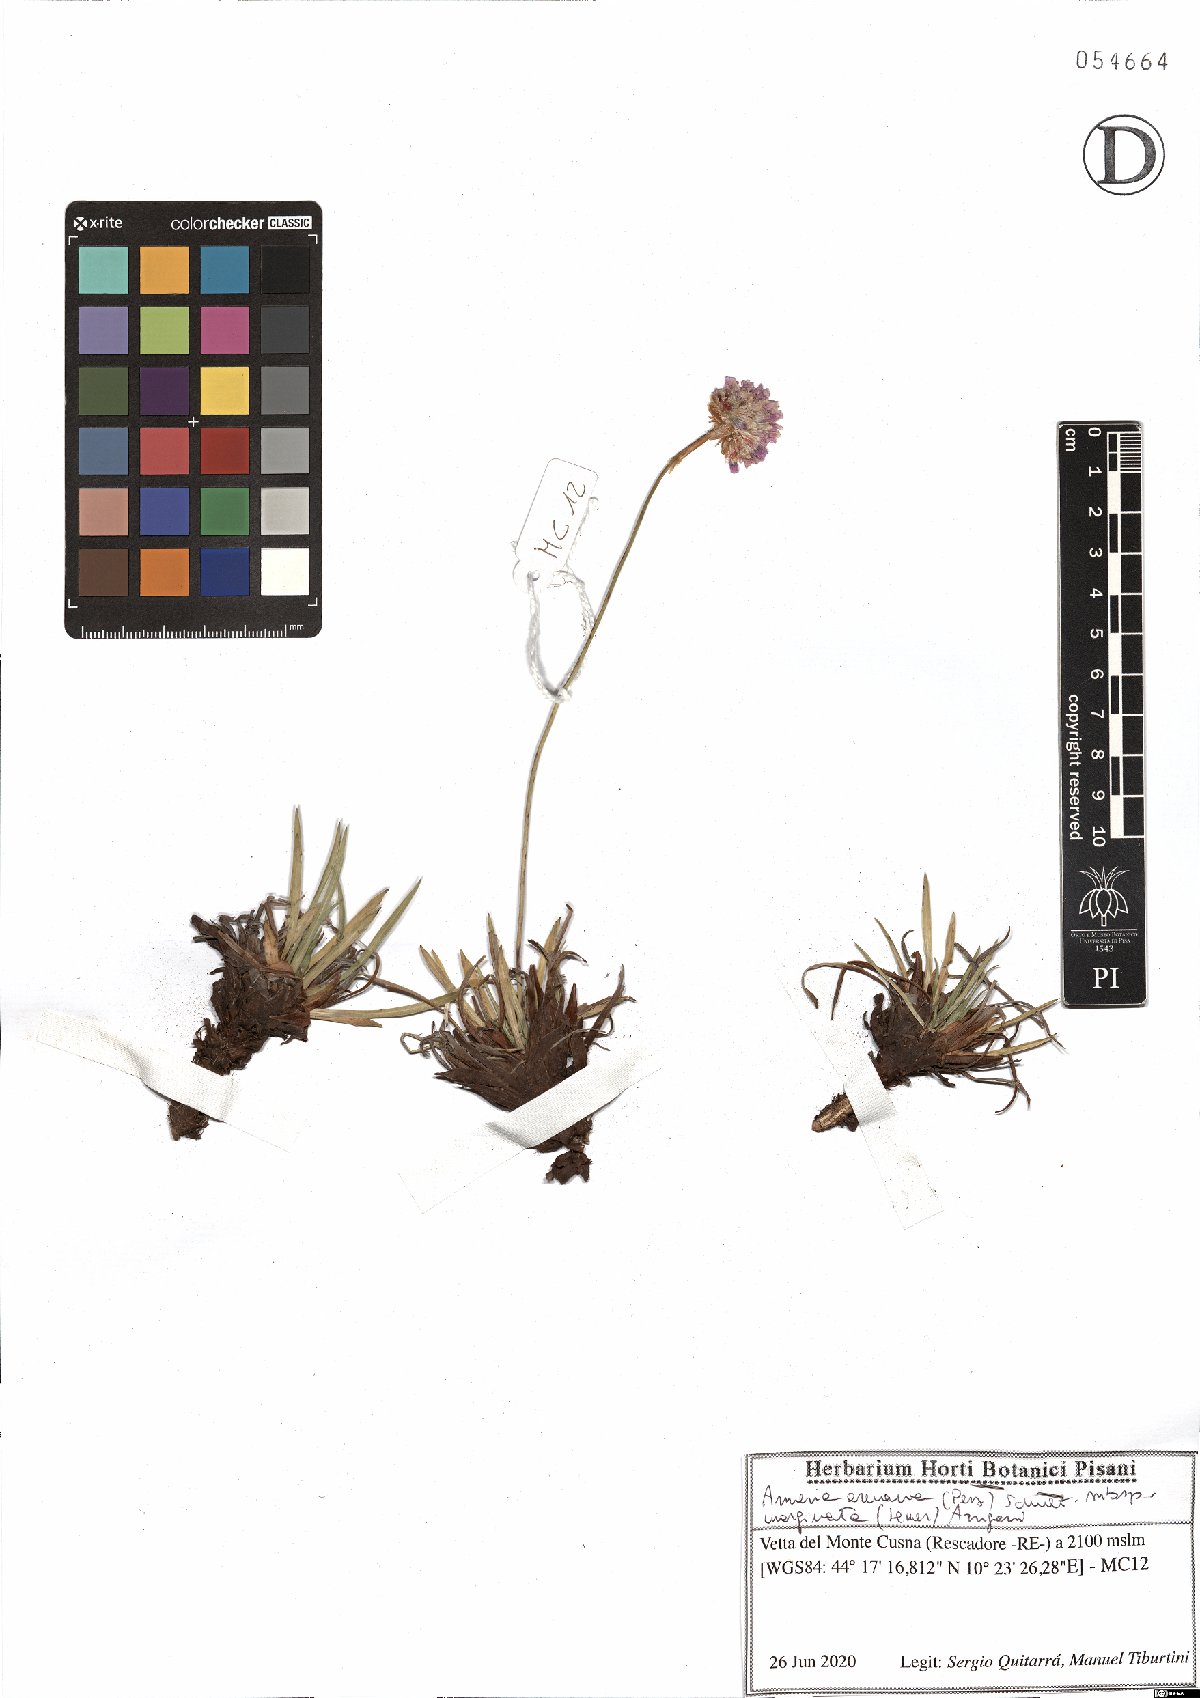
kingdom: Plantae
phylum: Tracheophyta
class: Magnoliopsida
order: Caryophyllales
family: Plumbaginaceae
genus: Armeria
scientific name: Armeria arenaria
